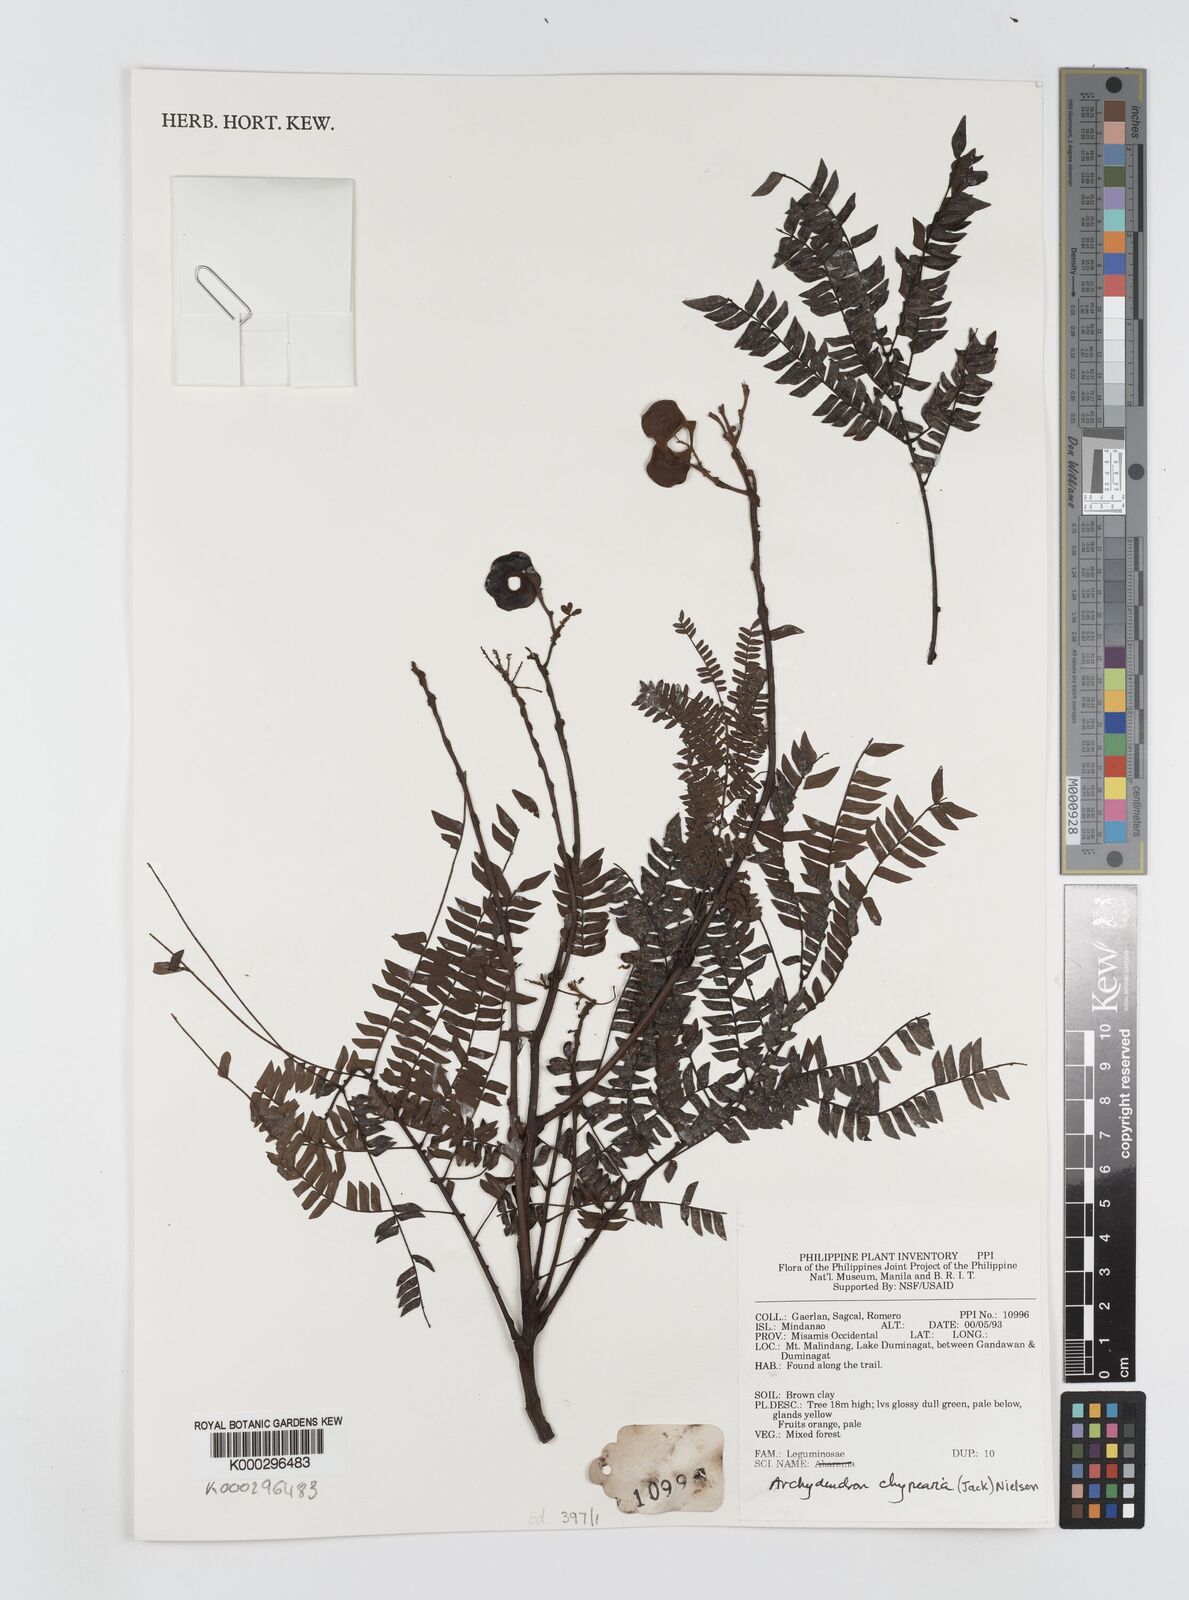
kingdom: Plantae
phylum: Tracheophyta
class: Magnoliopsida
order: Fabales
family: Fabaceae
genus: Archidendron
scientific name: Archidendron clypearia
